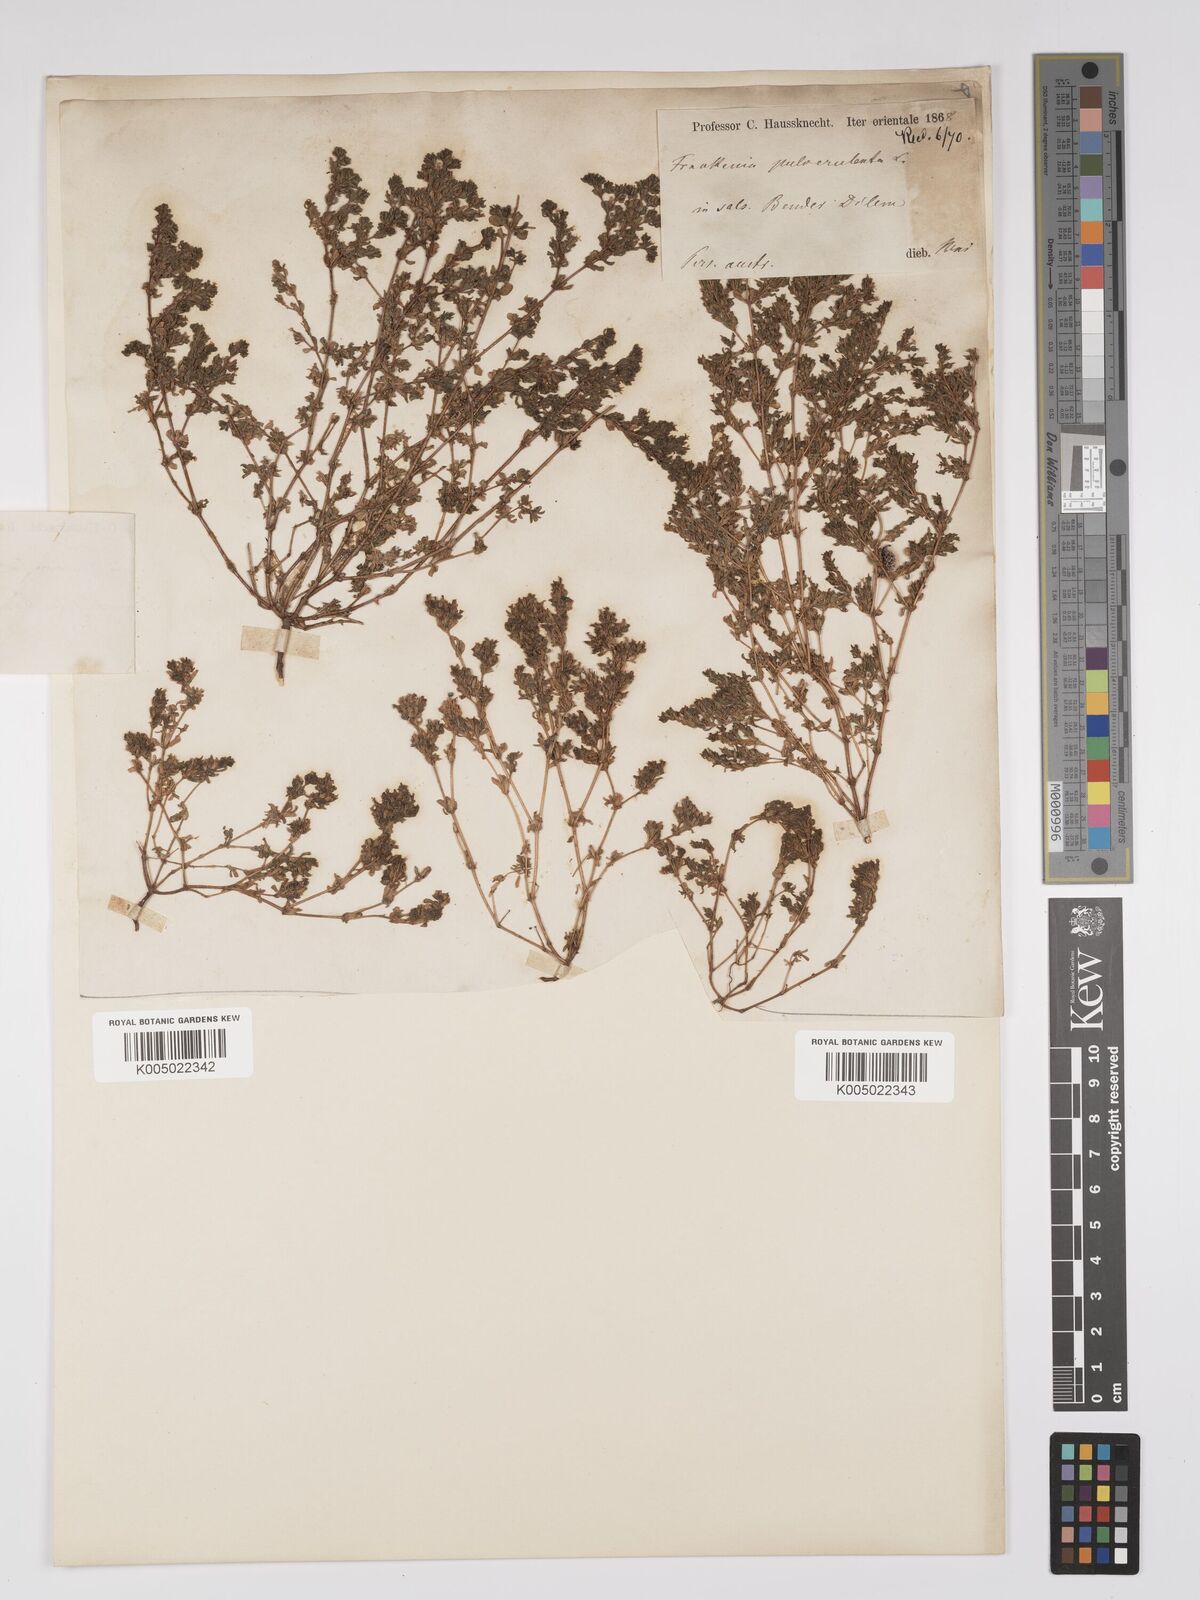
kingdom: Plantae
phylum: Tracheophyta
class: Magnoliopsida
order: Caryophyllales
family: Frankeniaceae
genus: Frankenia
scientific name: Frankenia pulverulenta
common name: European seaheath
